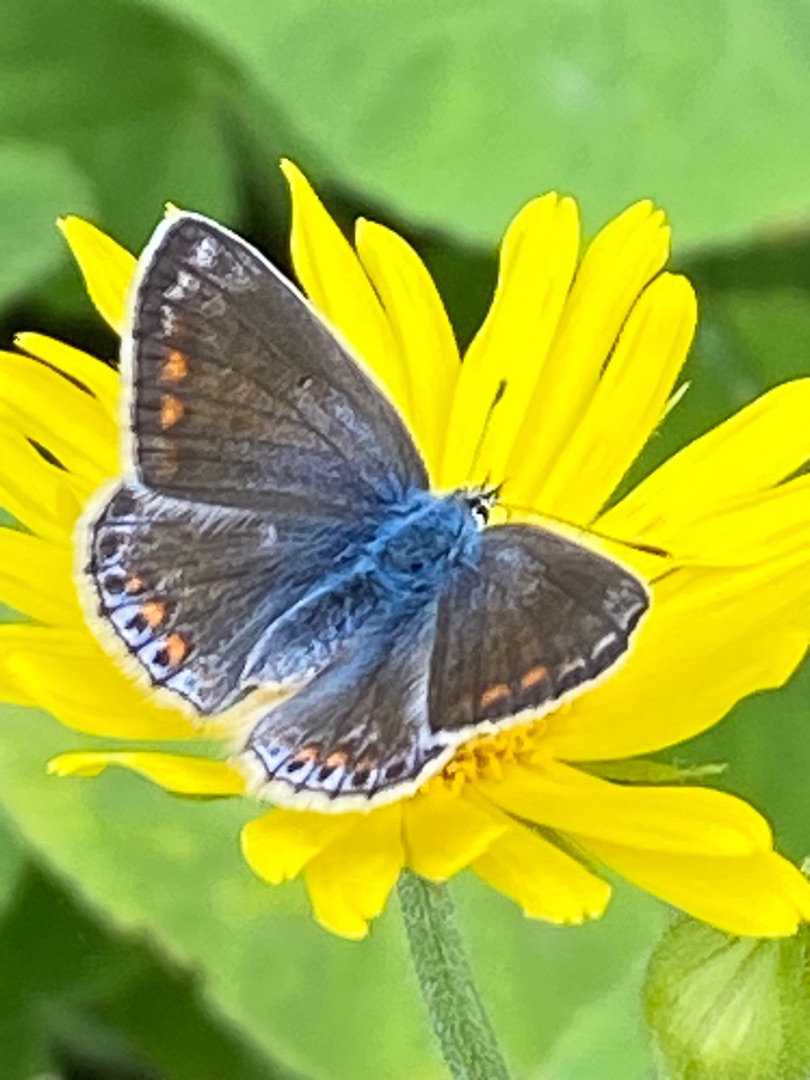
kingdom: Animalia
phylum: Arthropoda
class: Insecta
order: Lepidoptera
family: Lycaenidae
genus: Polyommatus
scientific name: Polyommatus icarus
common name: Almindelig blåfugl
